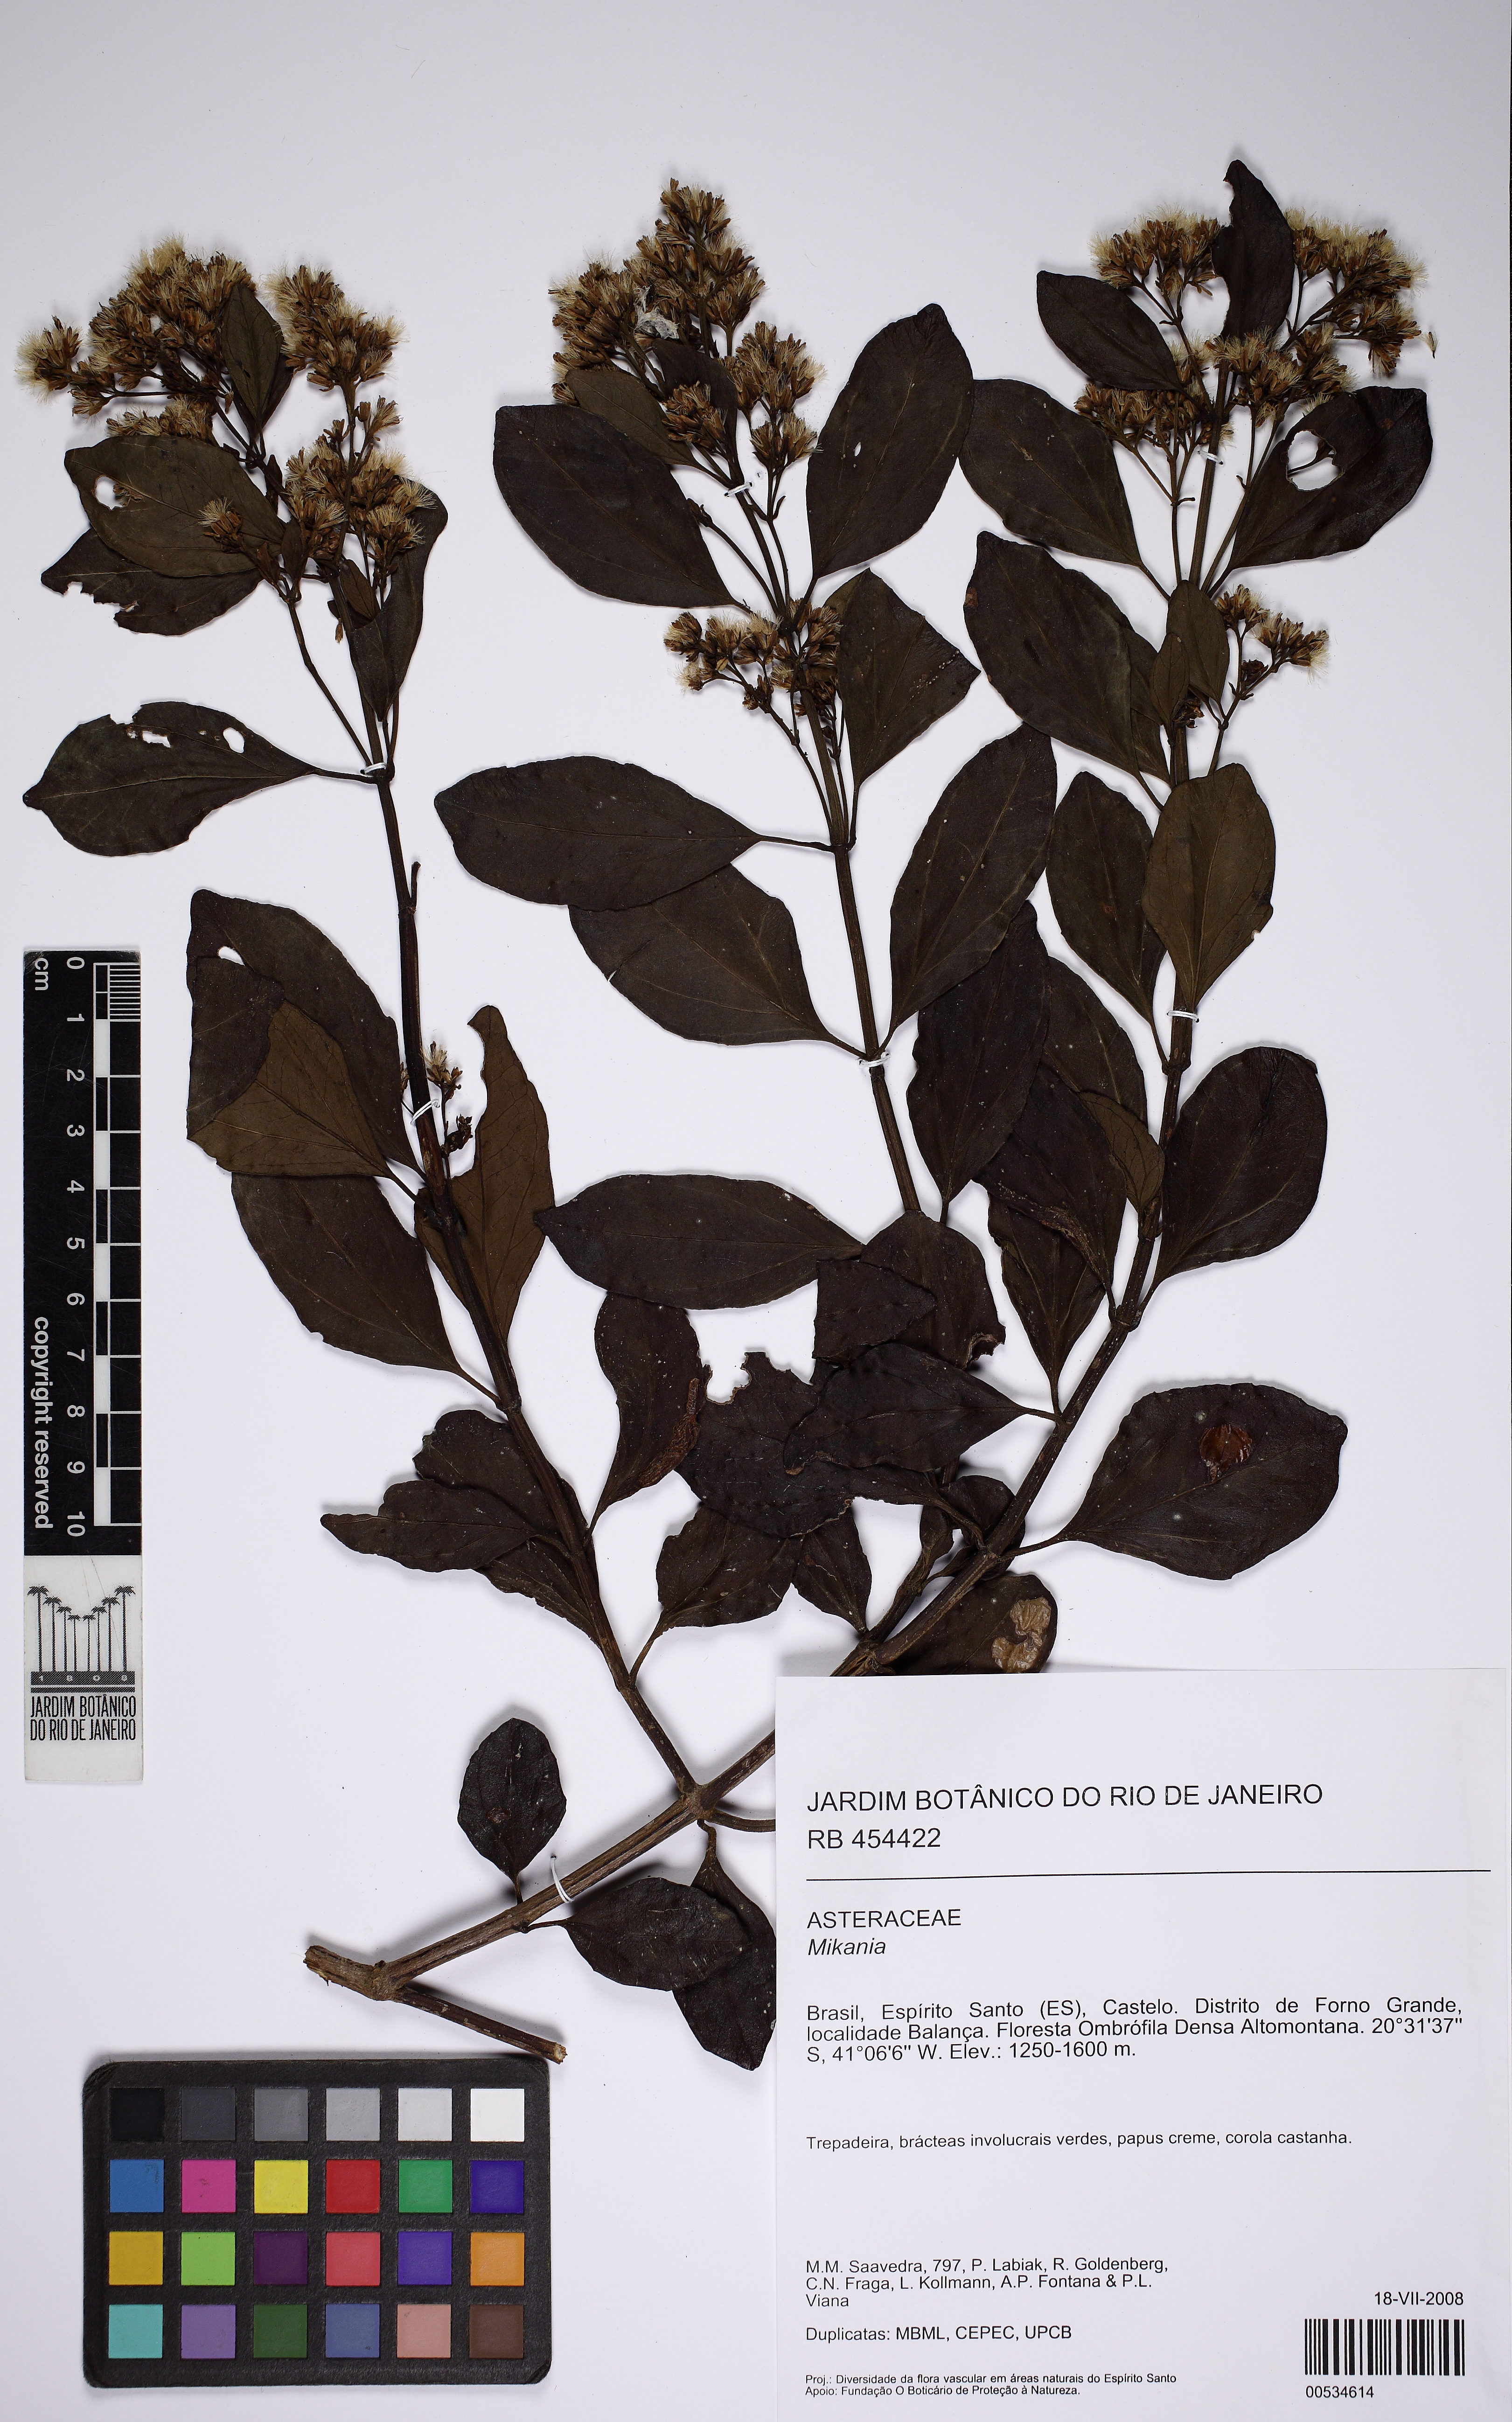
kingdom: Plantae
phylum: Tracheophyta
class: Magnoliopsida
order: Asterales
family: Asteraceae
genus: Mikania
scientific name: Mikania
